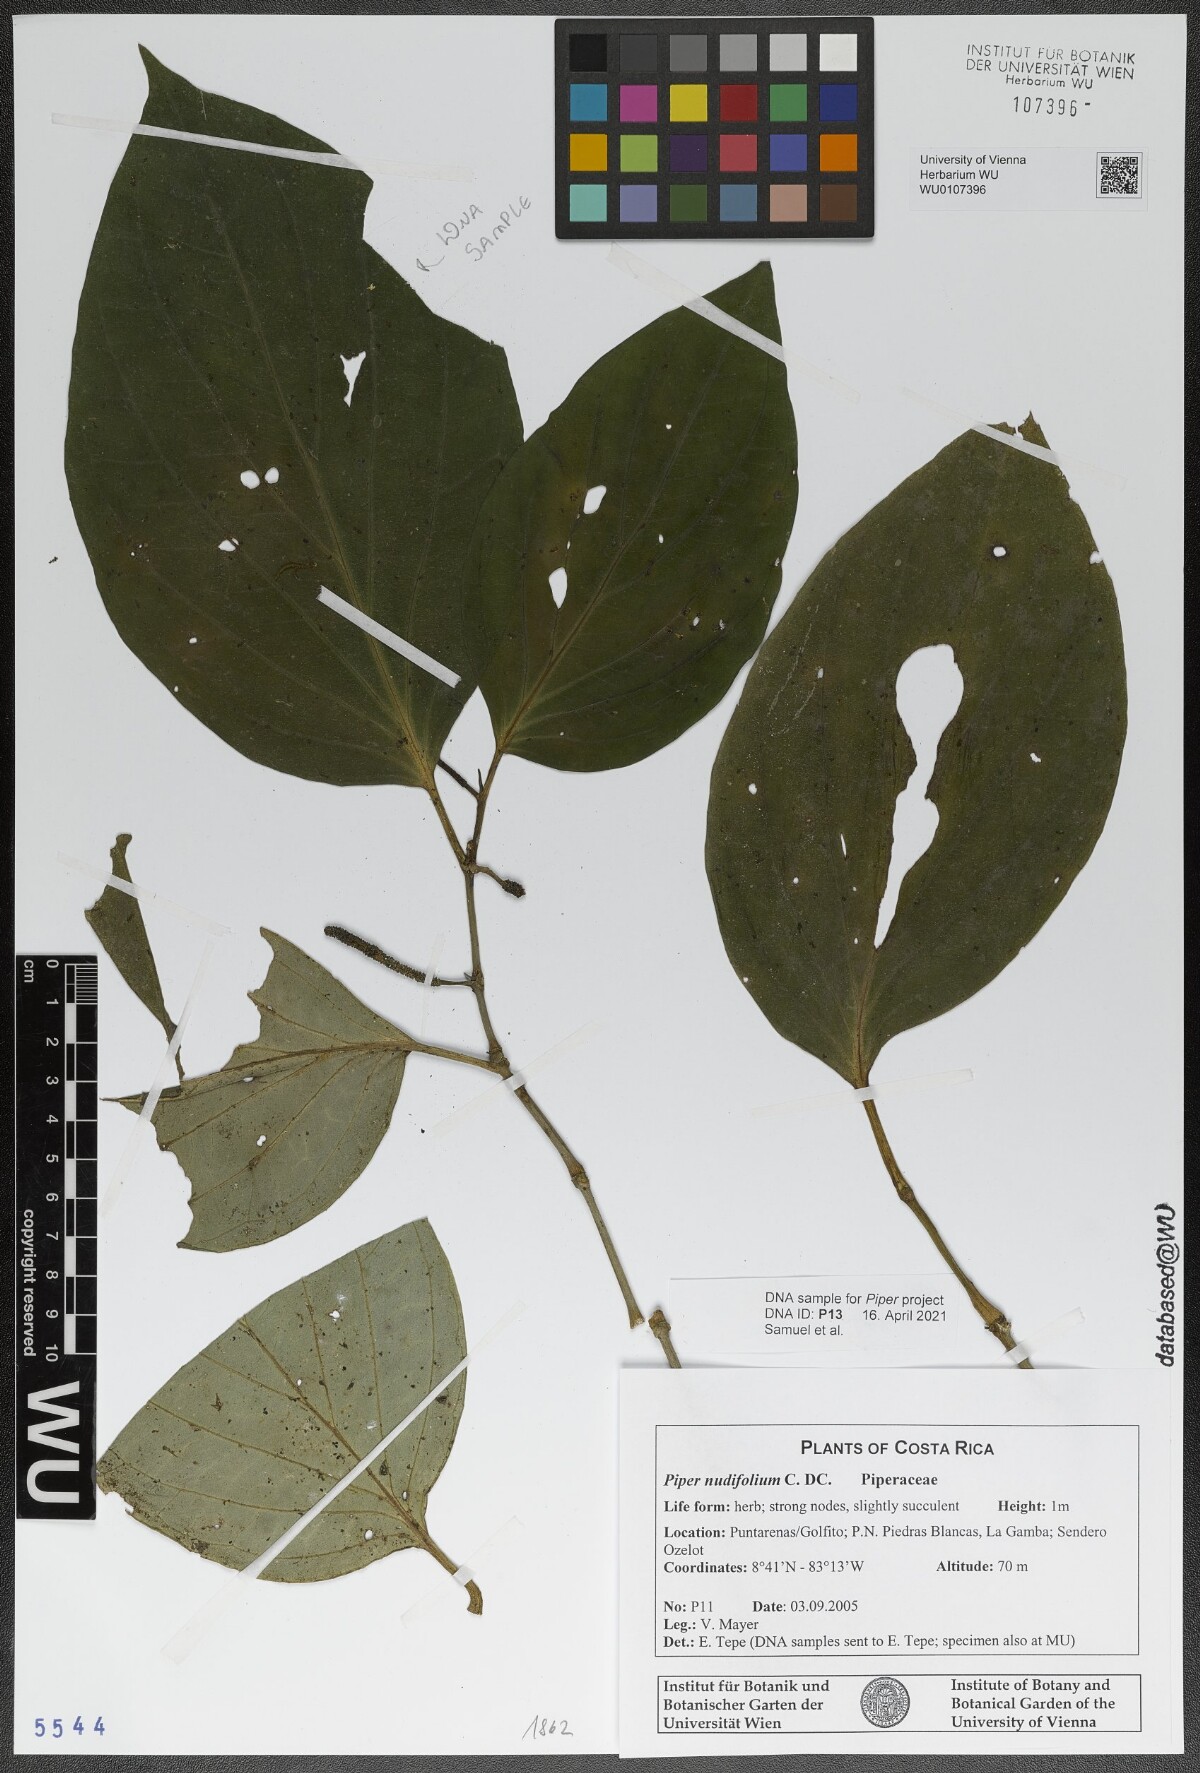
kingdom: Plantae
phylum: Tracheophyta
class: Magnoliopsida
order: Piperales
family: Piperaceae
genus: Piper
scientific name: Piper nudifolium
